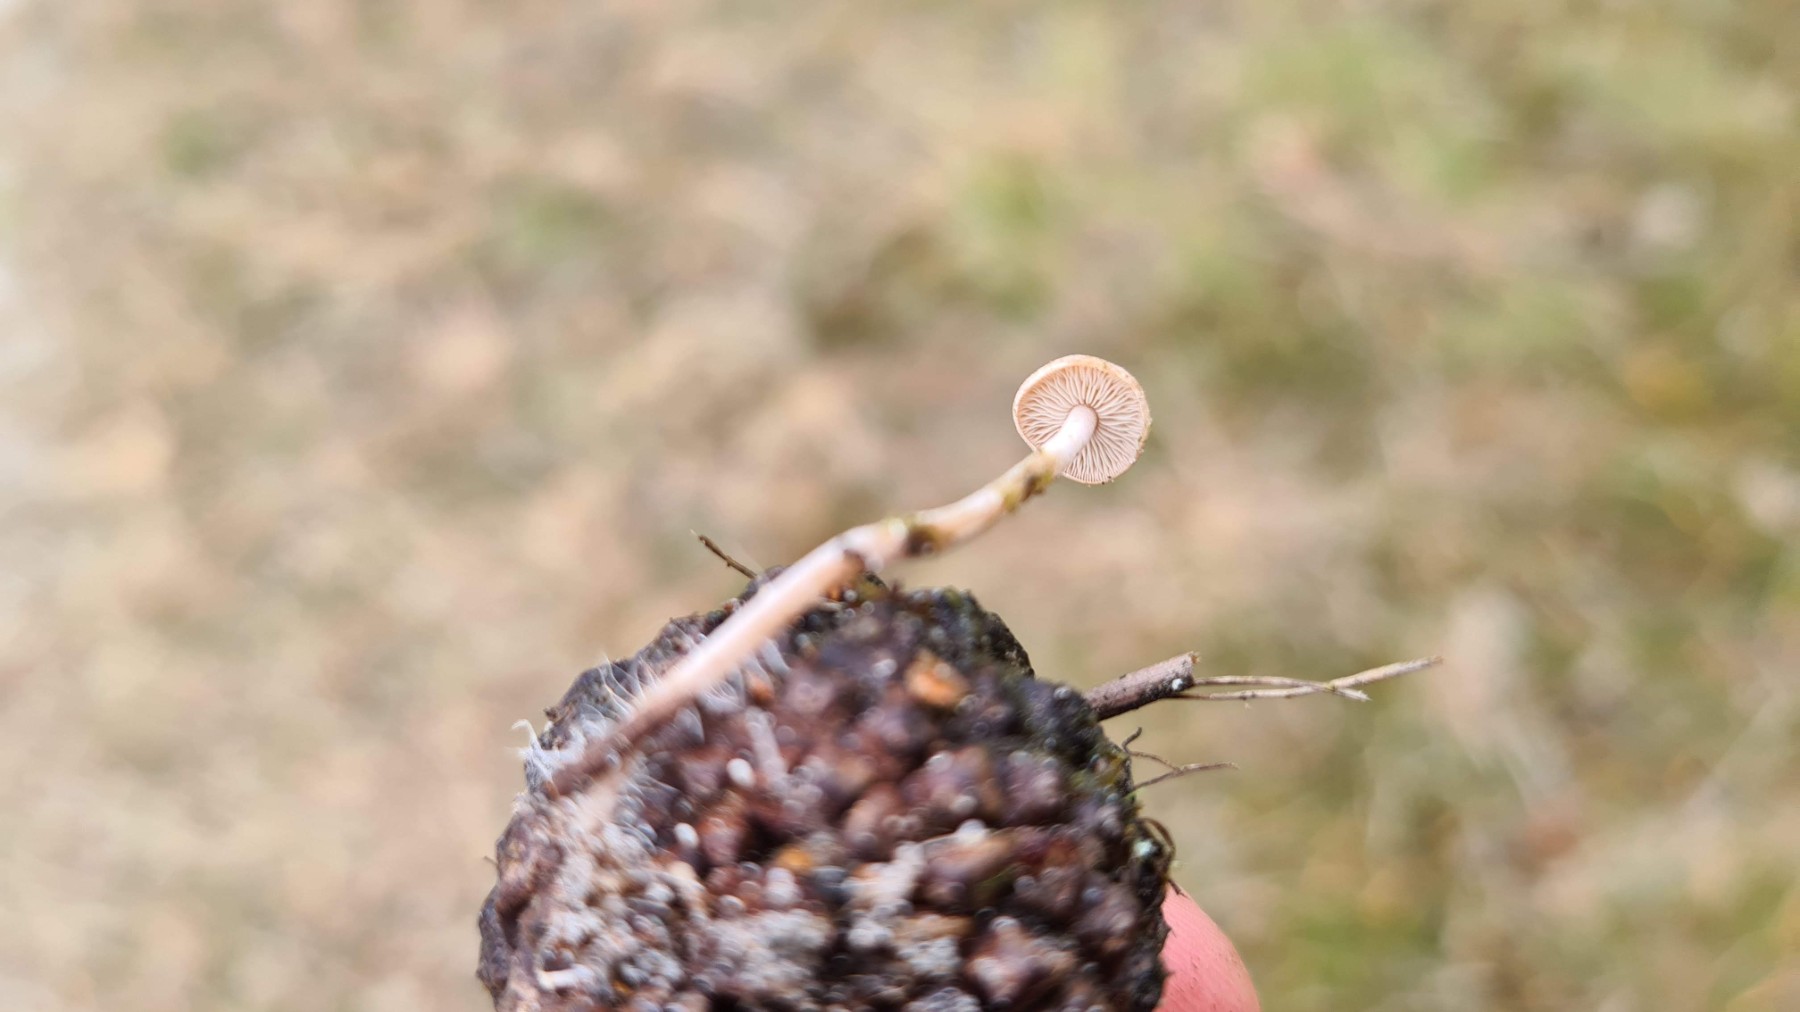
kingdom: Fungi
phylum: Basidiomycota
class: Agaricomycetes
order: Agaricales
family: Marasmiaceae
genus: Baeospora
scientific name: Baeospora myosura
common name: koglebruskhat
